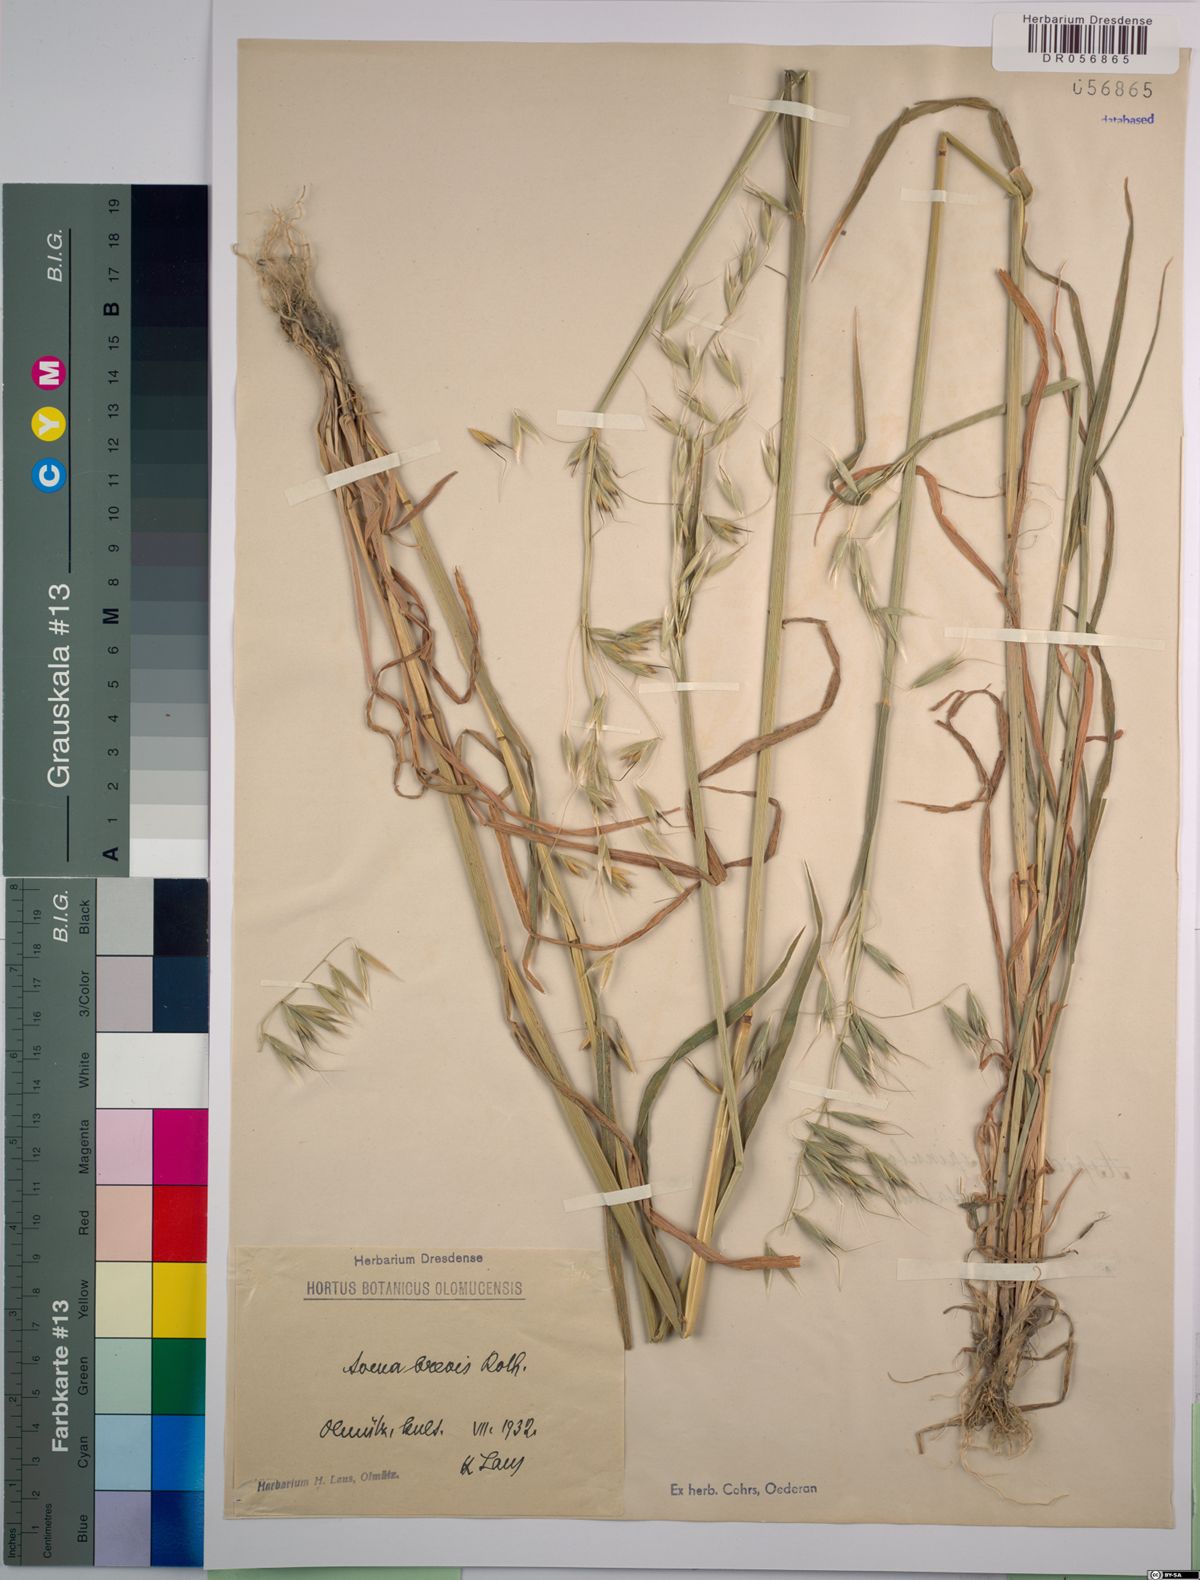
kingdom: Plantae
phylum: Tracheophyta
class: Liliopsida
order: Poales
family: Poaceae
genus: Avena
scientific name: Avena brevis
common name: Short oat
